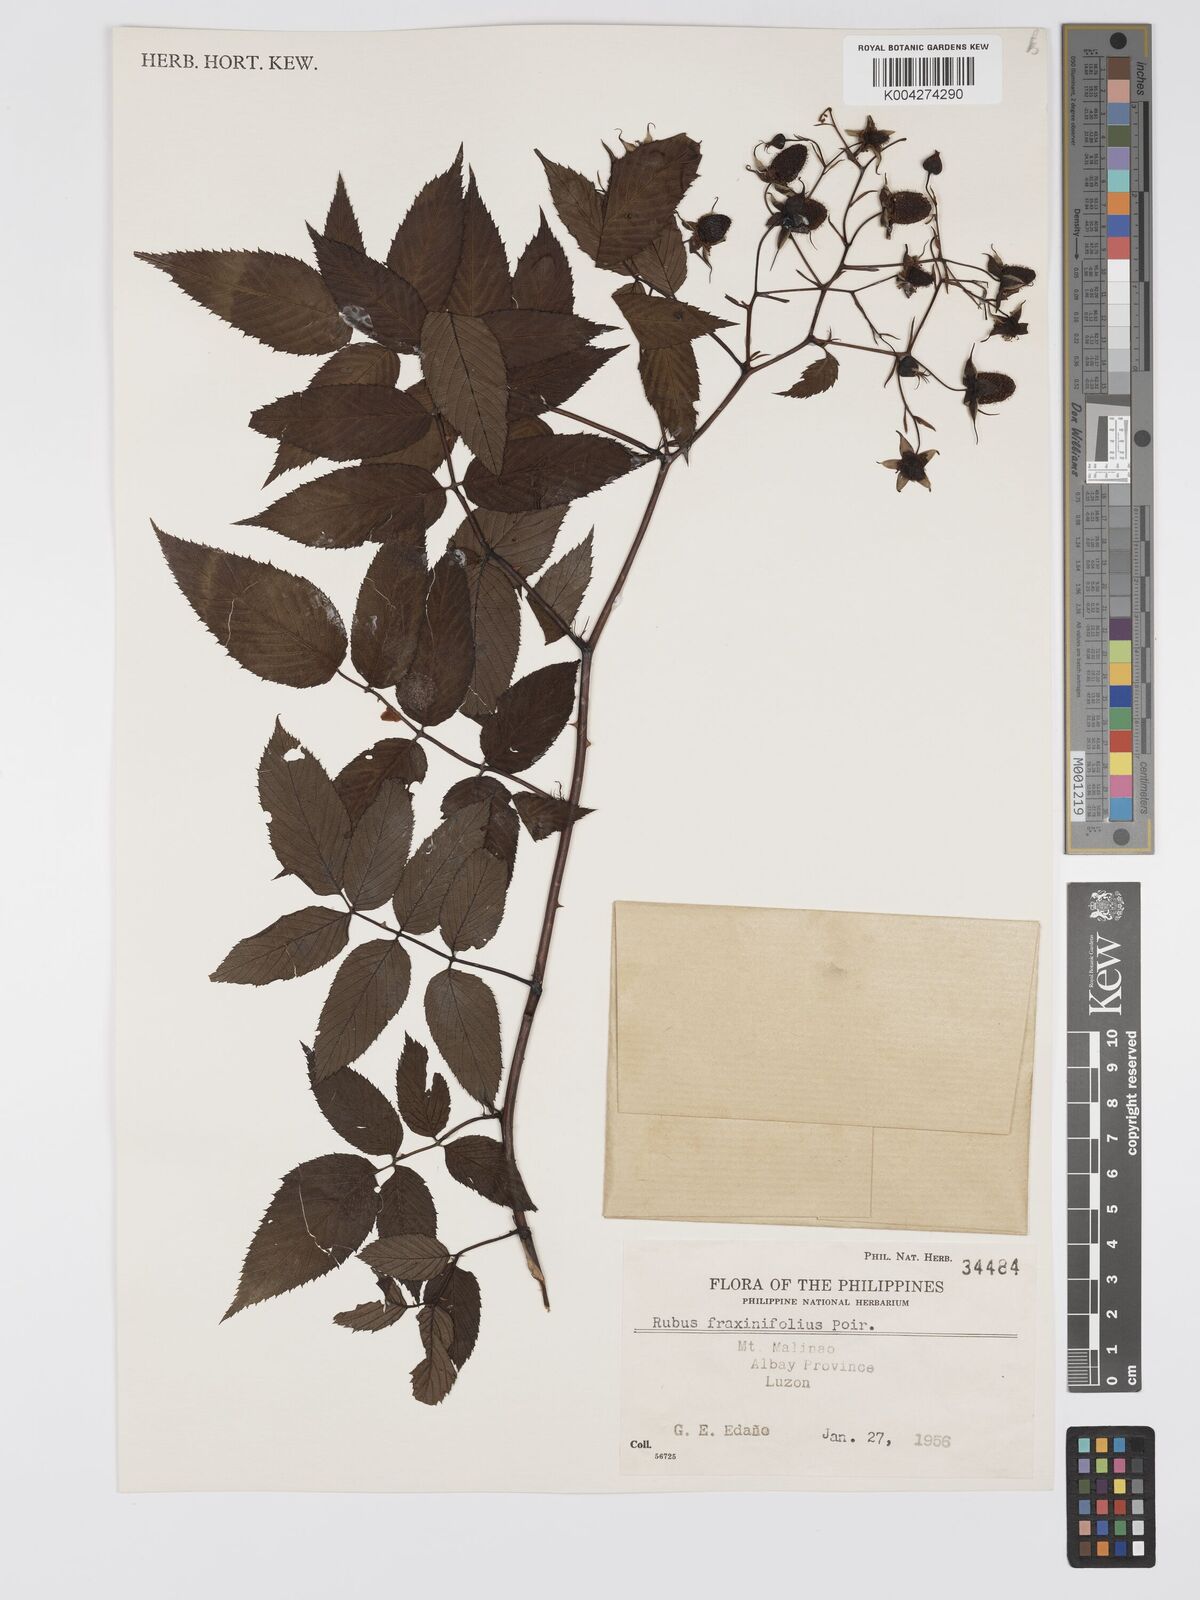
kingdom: Plantae
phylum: Tracheophyta
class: Magnoliopsida
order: Rosales
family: Rosaceae
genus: Rubus
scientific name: Rubus fraxinifolius
